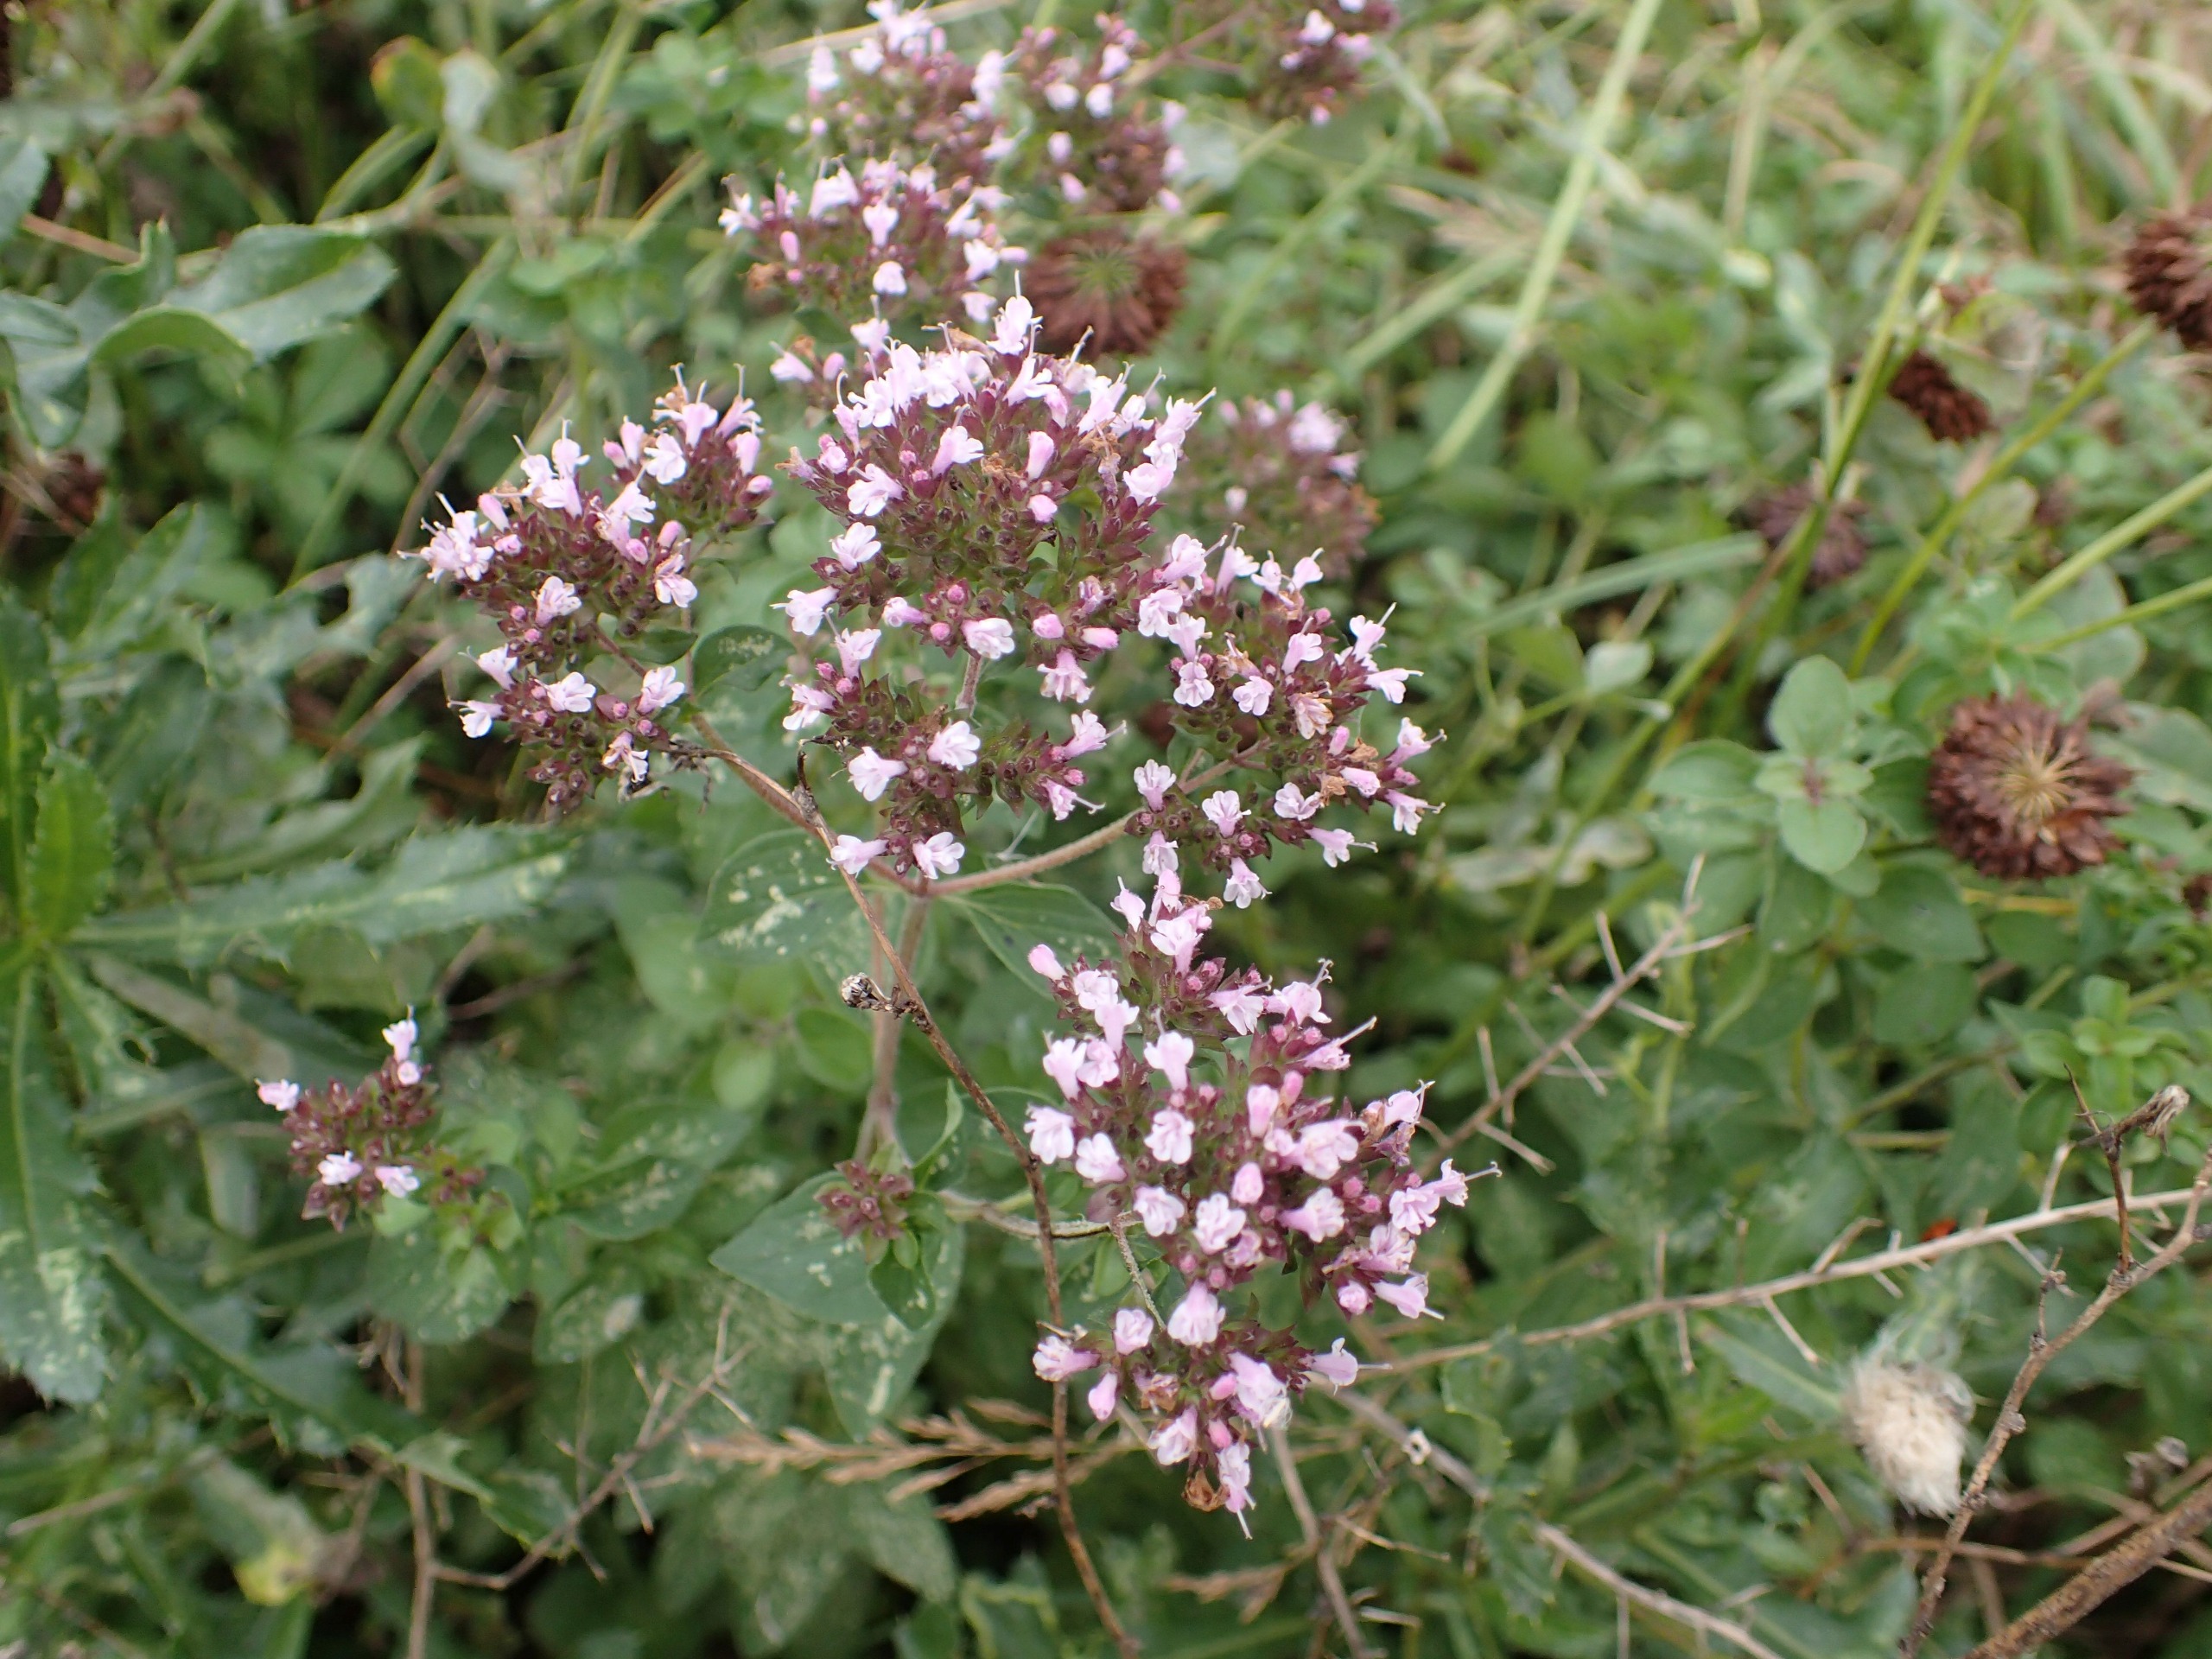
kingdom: Plantae
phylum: Tracheophyta
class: Magnoliopsida
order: Lamiales
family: Lamiaceae
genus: Origanum
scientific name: Origanum vulgare
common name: Merian
